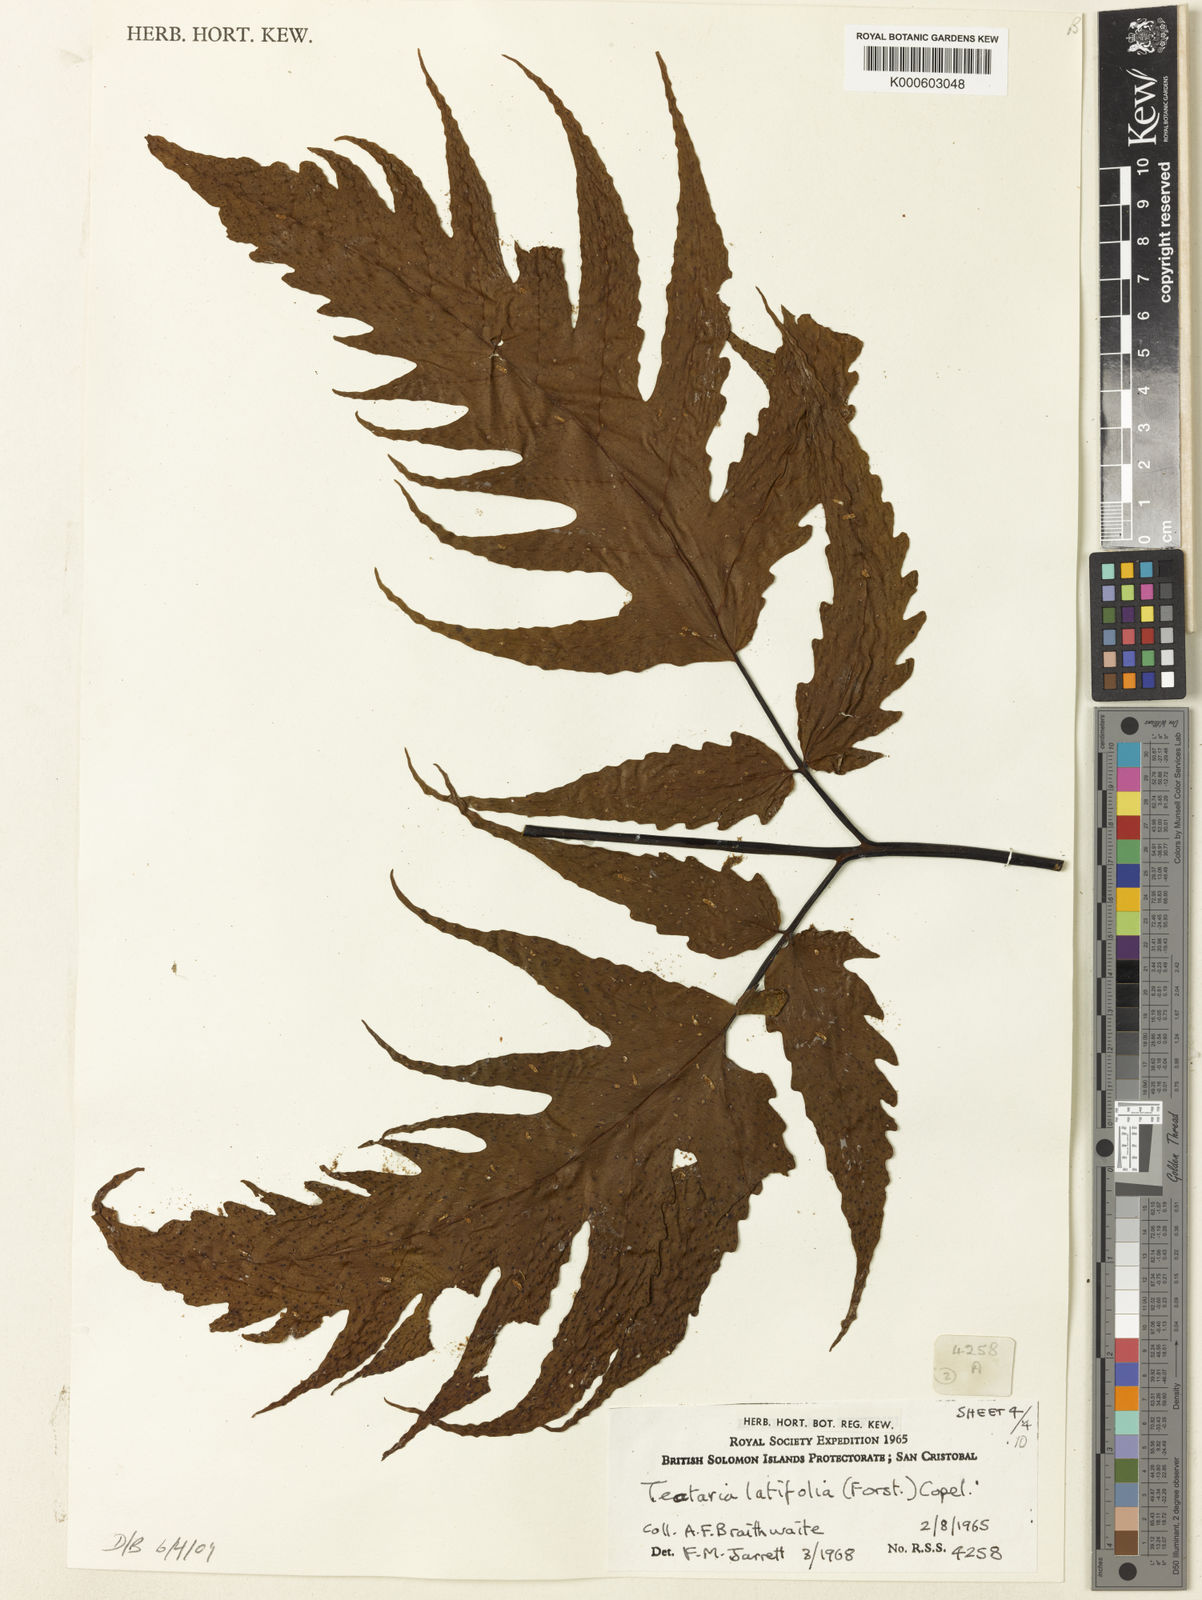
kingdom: Plantae
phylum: Tracheophyta
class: Polypodiopsida
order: Polypodiales
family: Tectariaceae
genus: Tectaria
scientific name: Tectaria
